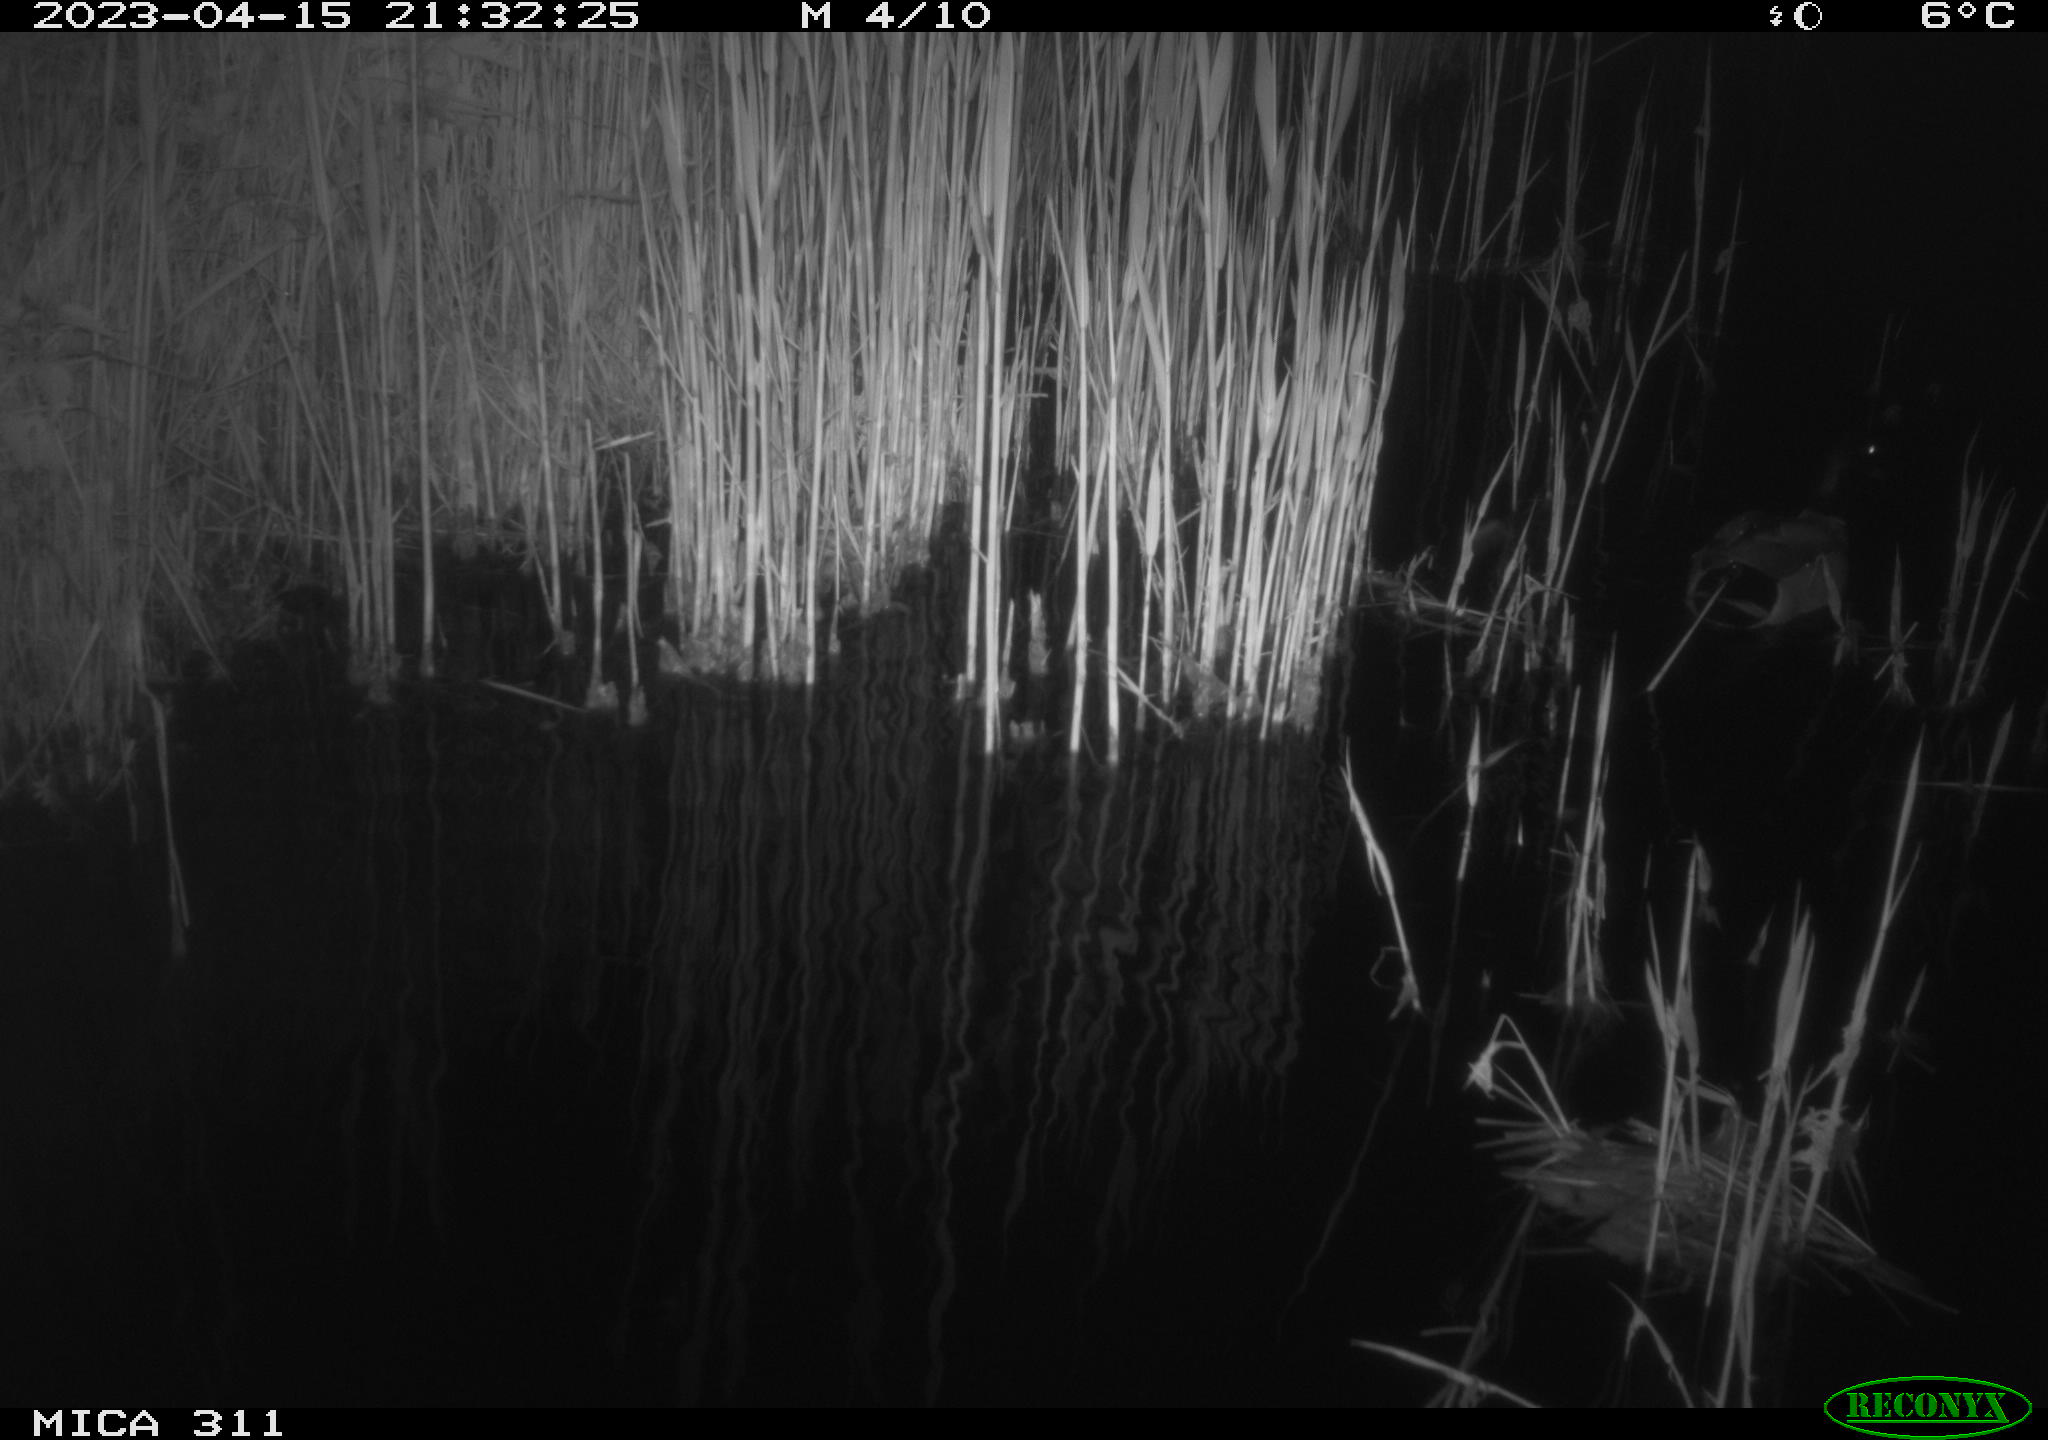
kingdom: Animalia
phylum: Chordata
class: Aves
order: Anseriformes
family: Anatidae
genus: Anas
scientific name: Anas
